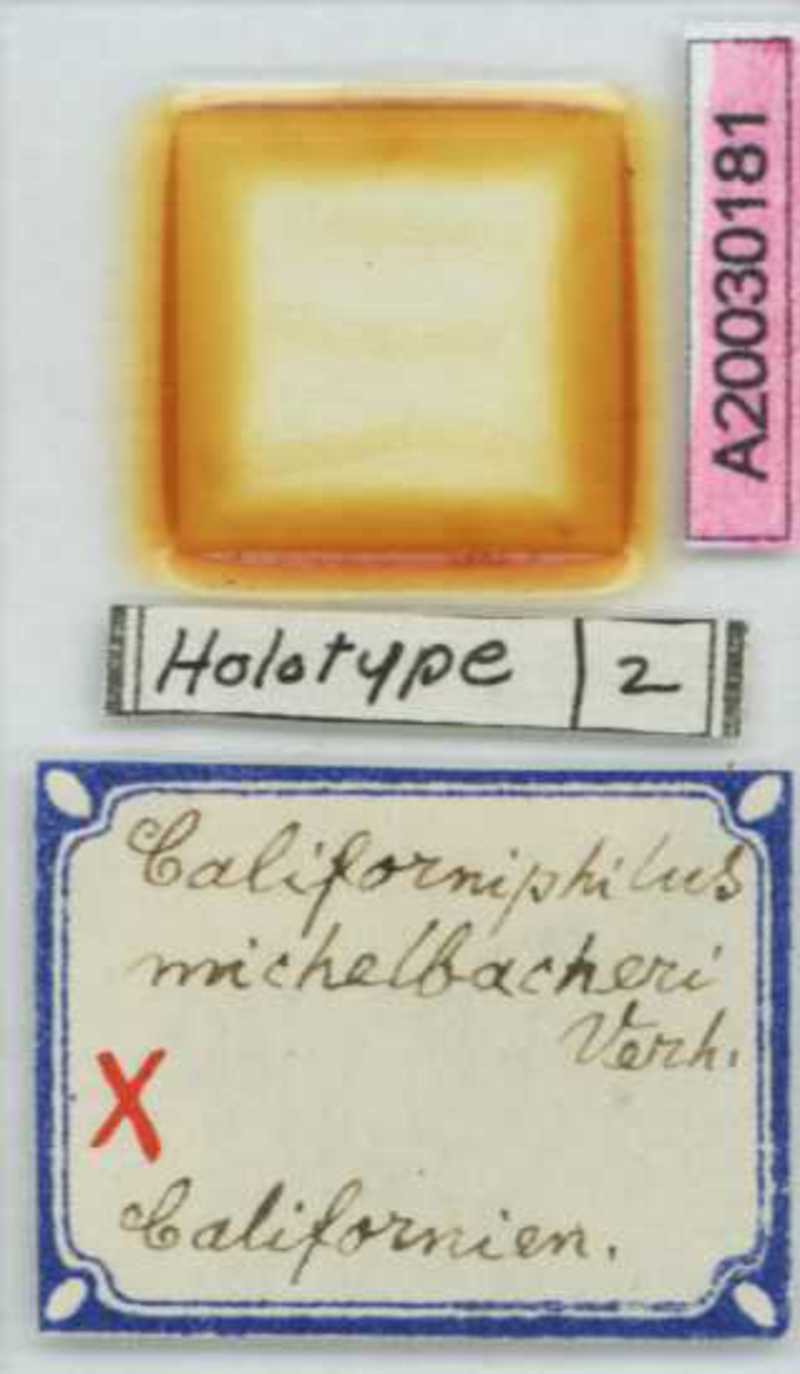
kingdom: Animalia
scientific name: Animalia
